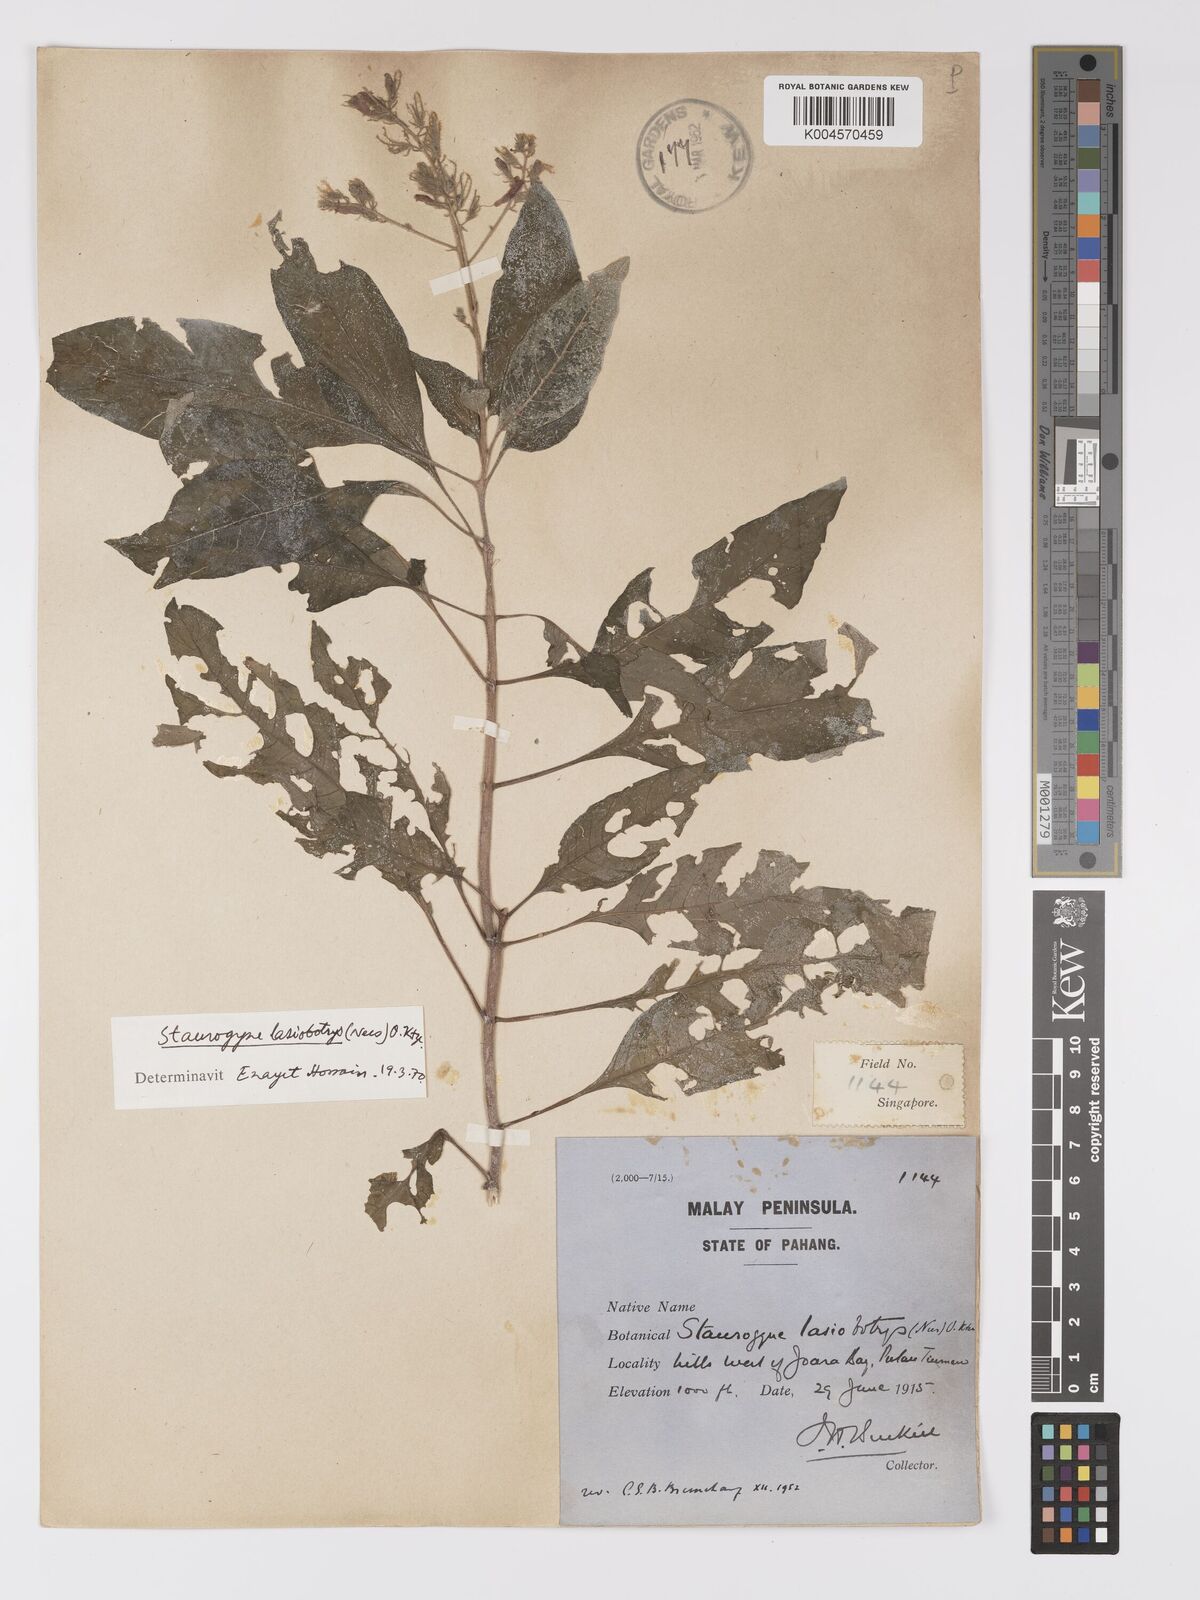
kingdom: Plantae
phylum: Tracheophyta
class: Magnoliopsida
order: Lamiales
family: Acanthaceae
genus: Staurogyne
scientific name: Staurogyne lasiobotrys
